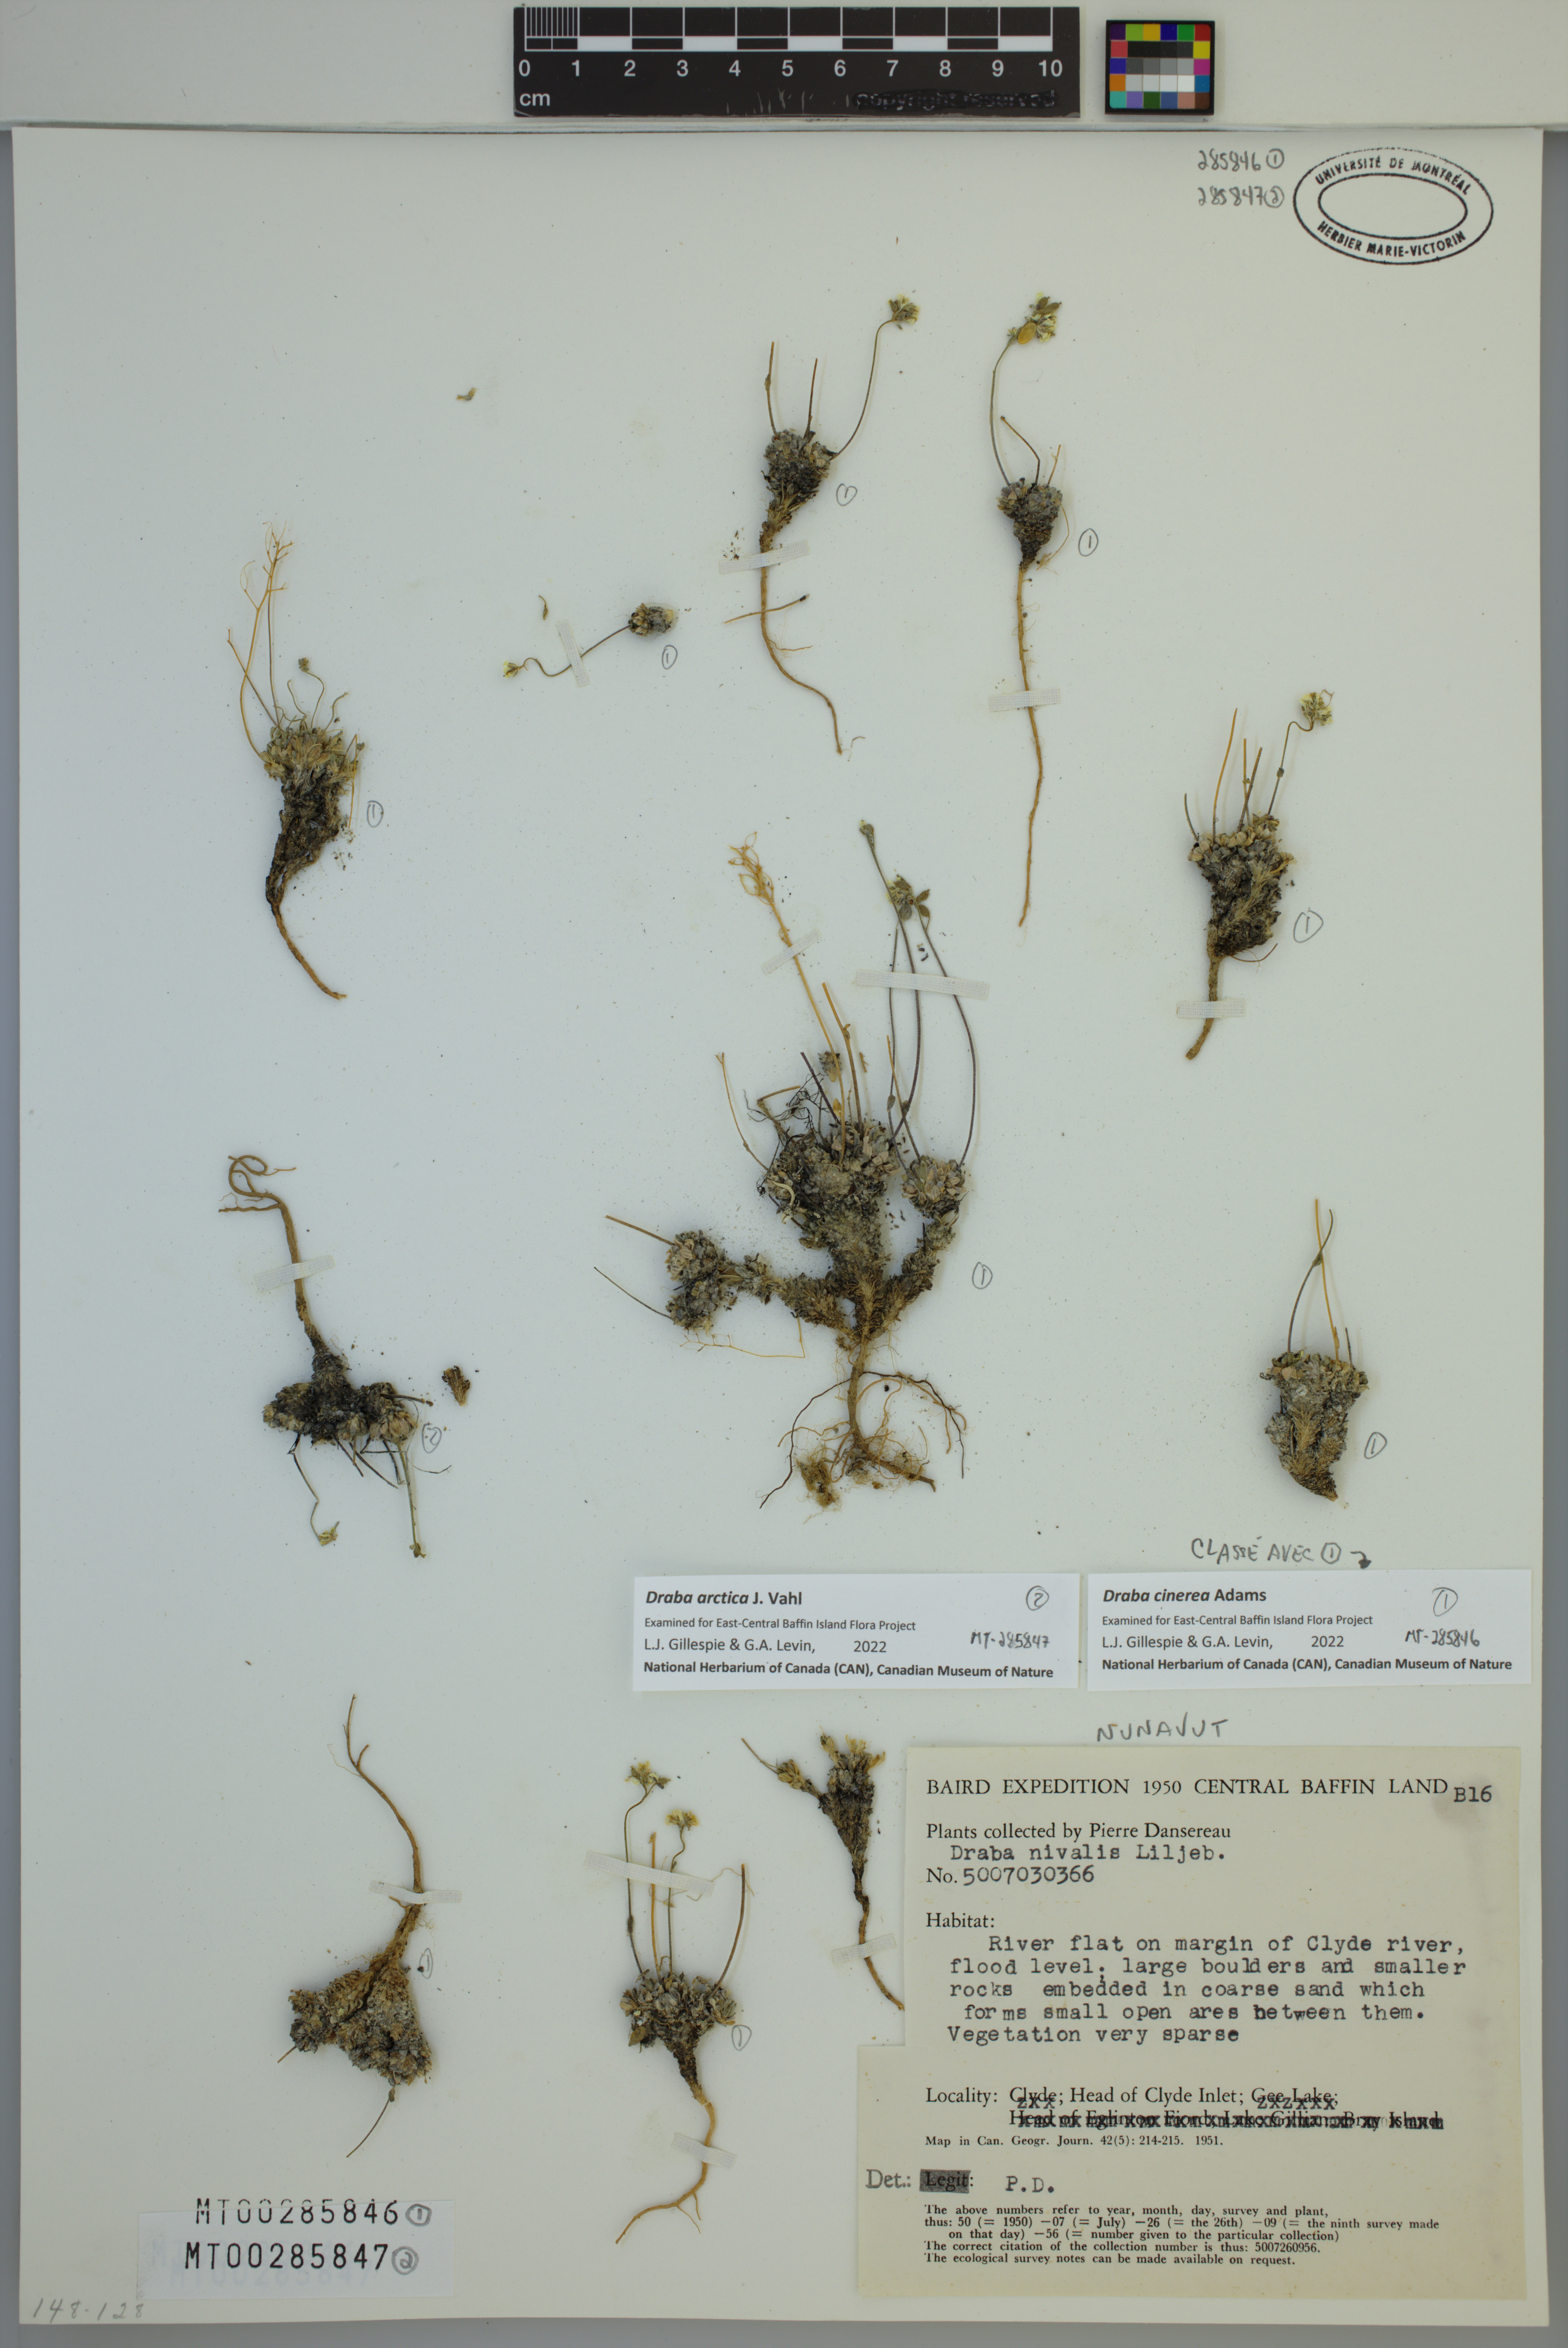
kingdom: Plantae
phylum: Tracheophyta
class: Magnoliopsida
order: Brassicales
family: Brassicaceae
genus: Draba
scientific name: Draba arctica
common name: Arctic draba
